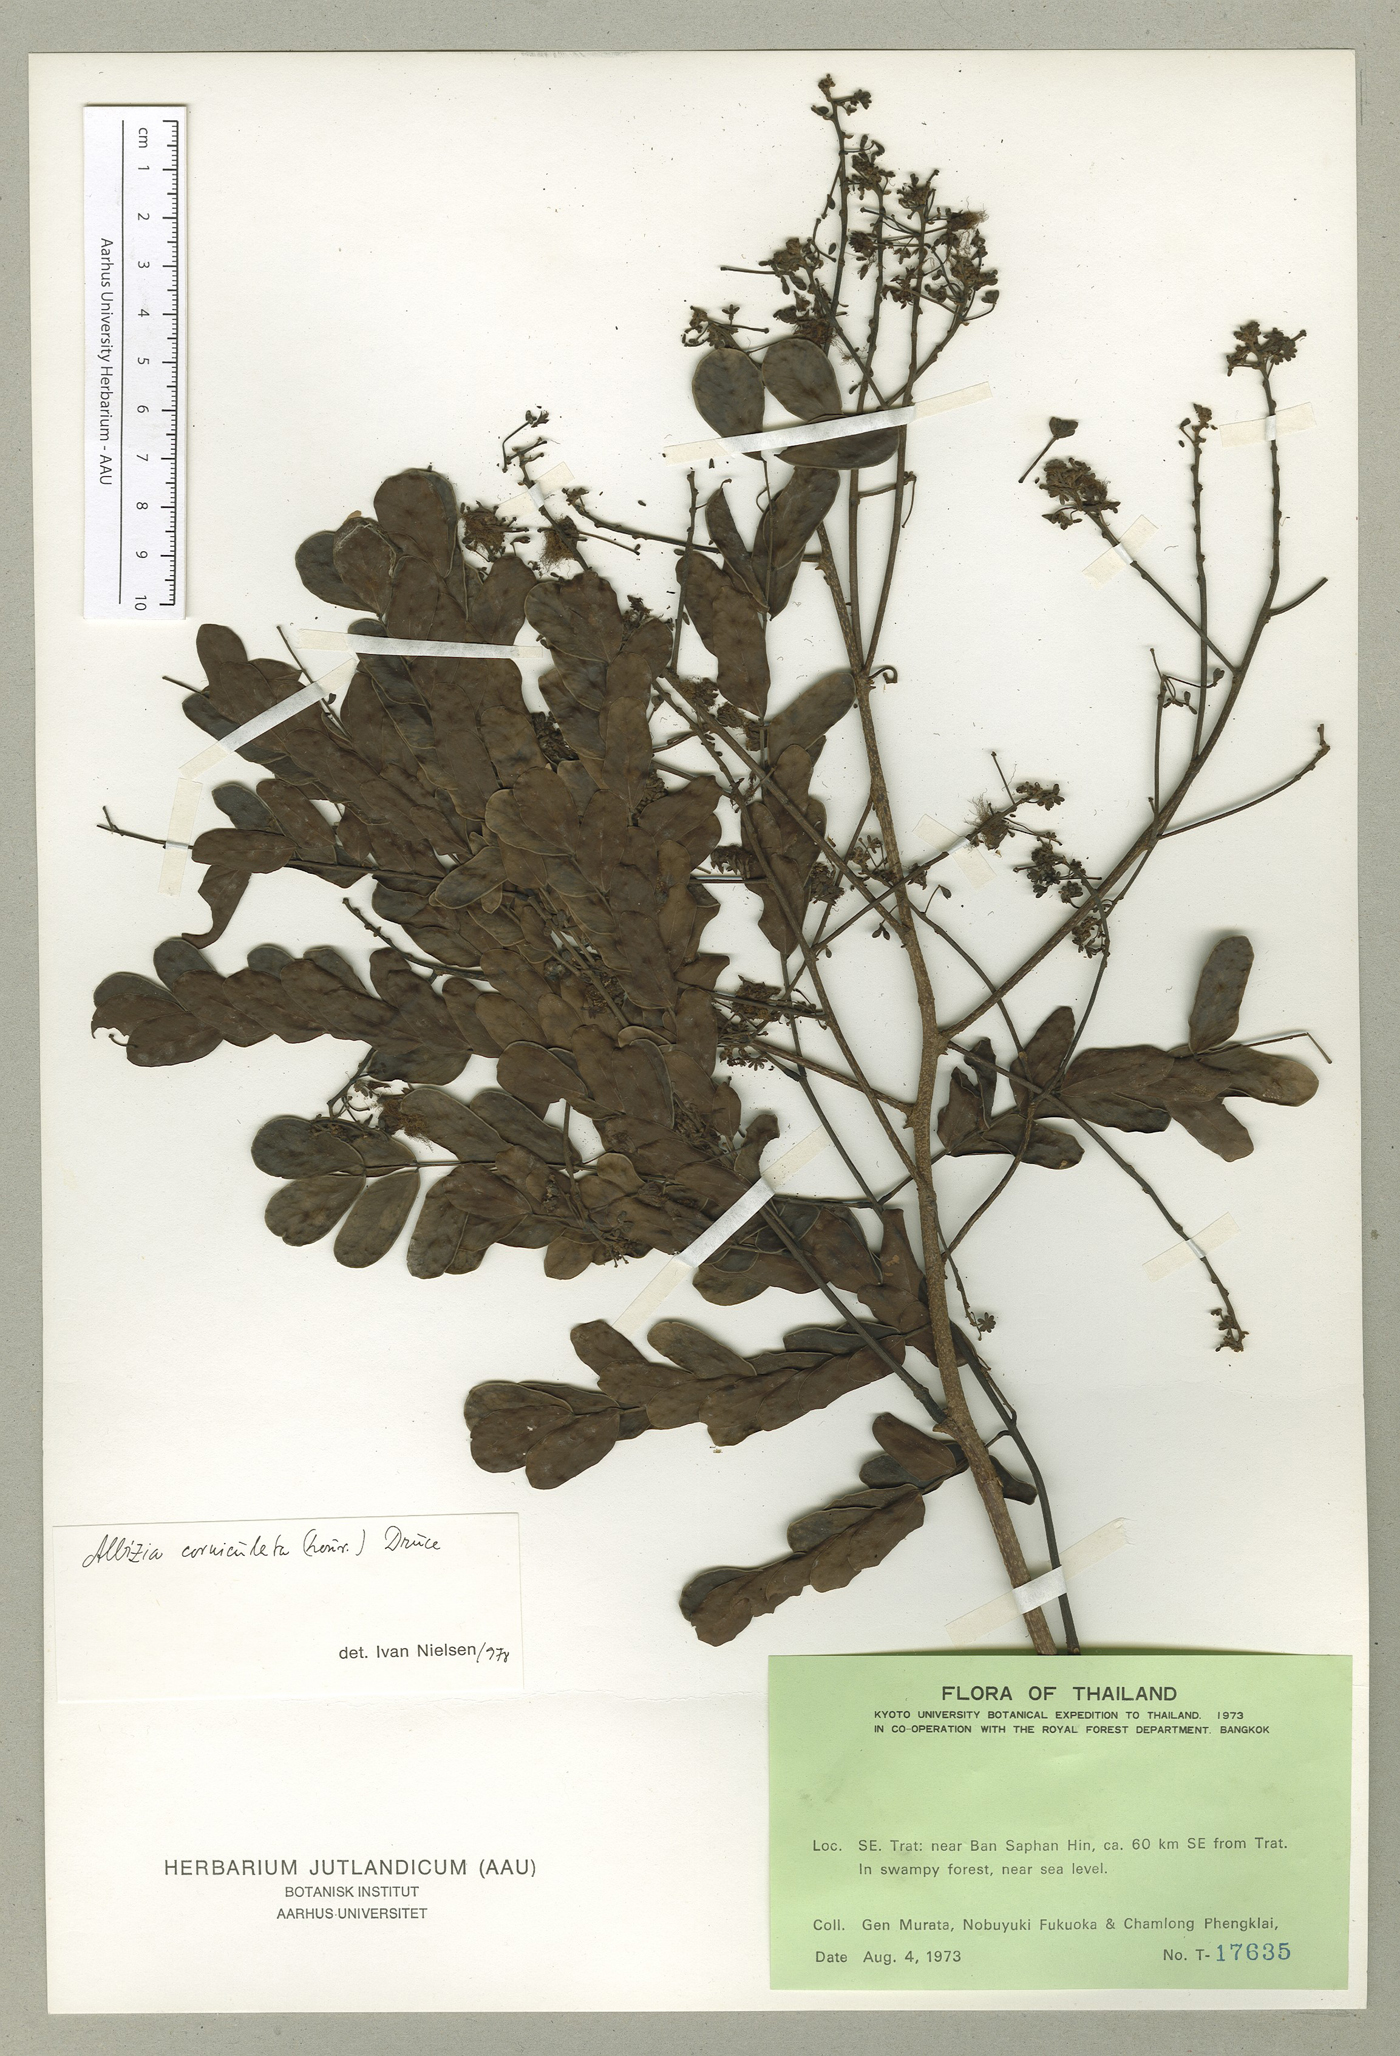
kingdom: Plantae
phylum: Tracheophyta
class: Magnoliopsida
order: Fabales
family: Fabaceae
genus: Albizia
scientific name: Albizia corniculata
